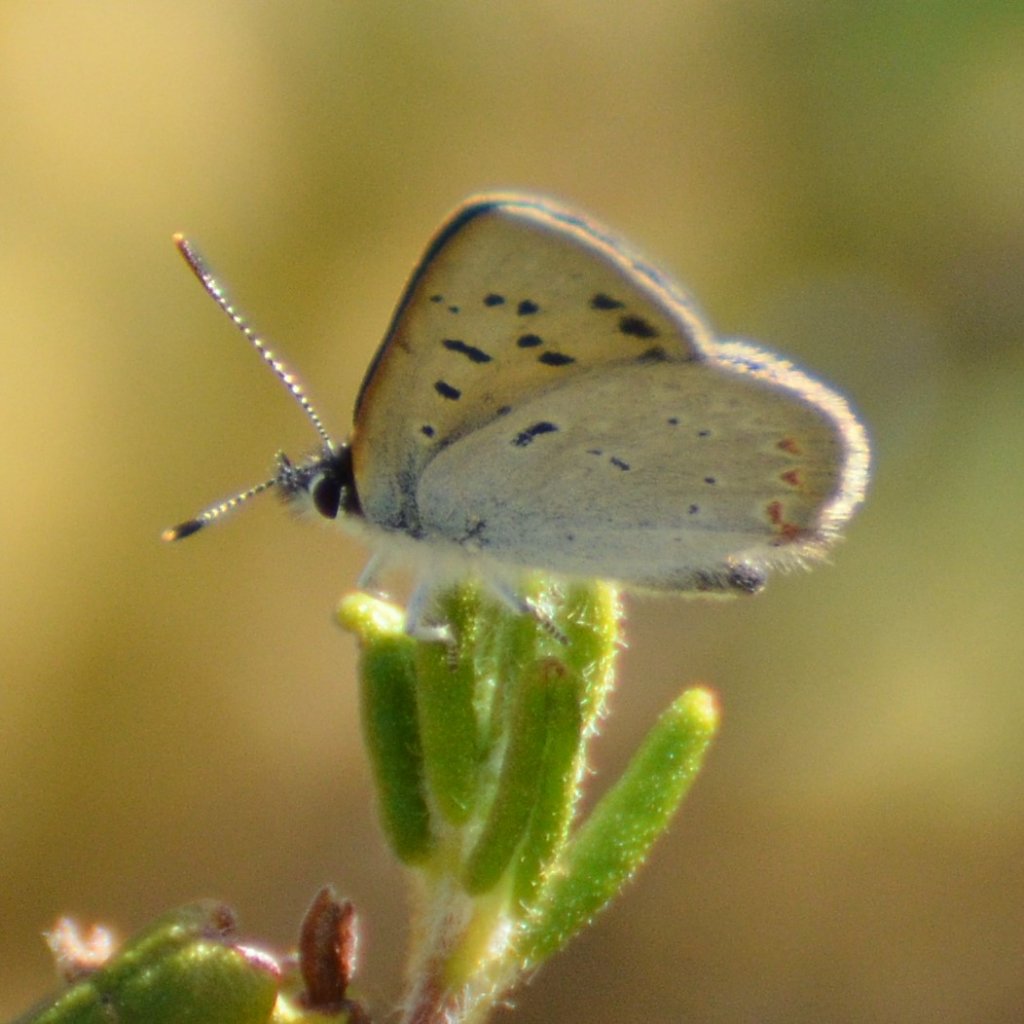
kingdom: Animalia
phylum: Arthropoda
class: Insecta
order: Lepidoptera
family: Sesiidae
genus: Sesia
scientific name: Sesia Lycaena epixanthe
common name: Bog Copper
